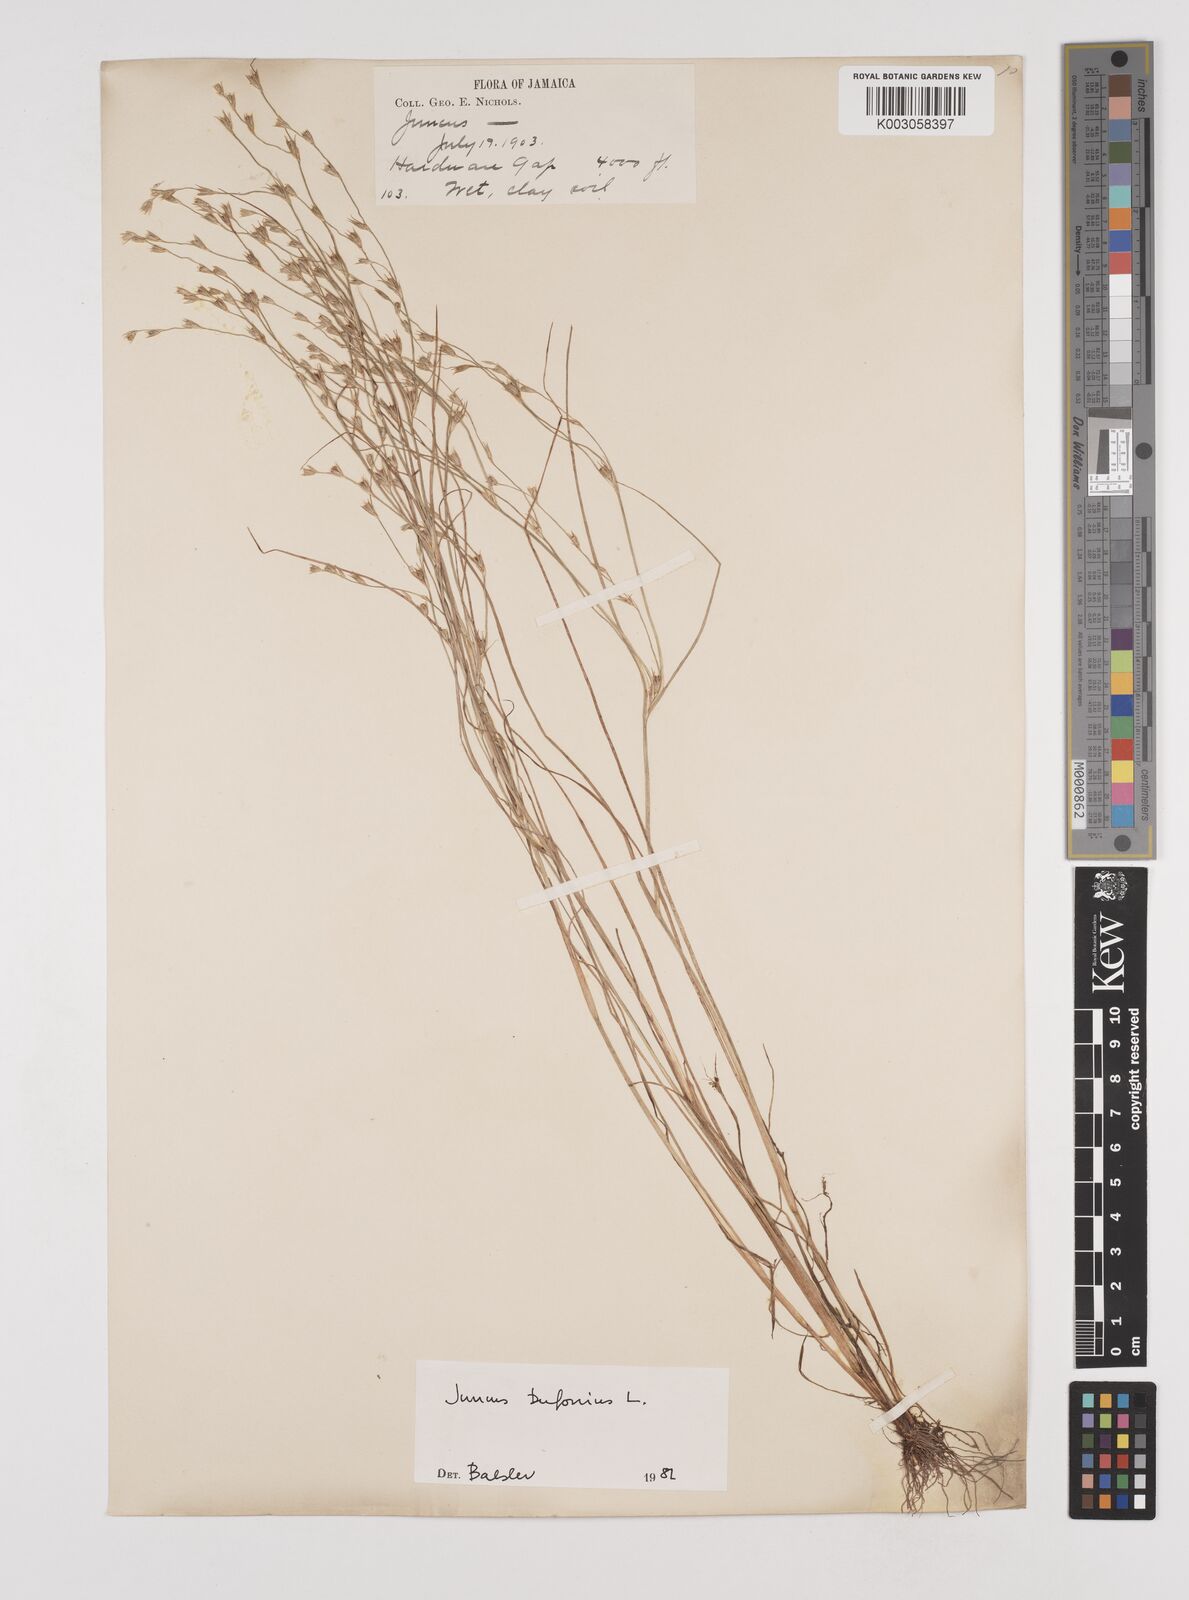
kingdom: Plantae
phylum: Tracheophyta
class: Liliopsida
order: Poales
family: Juncaceae
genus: Juncus
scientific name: Juncus bufonius
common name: Toad rush
